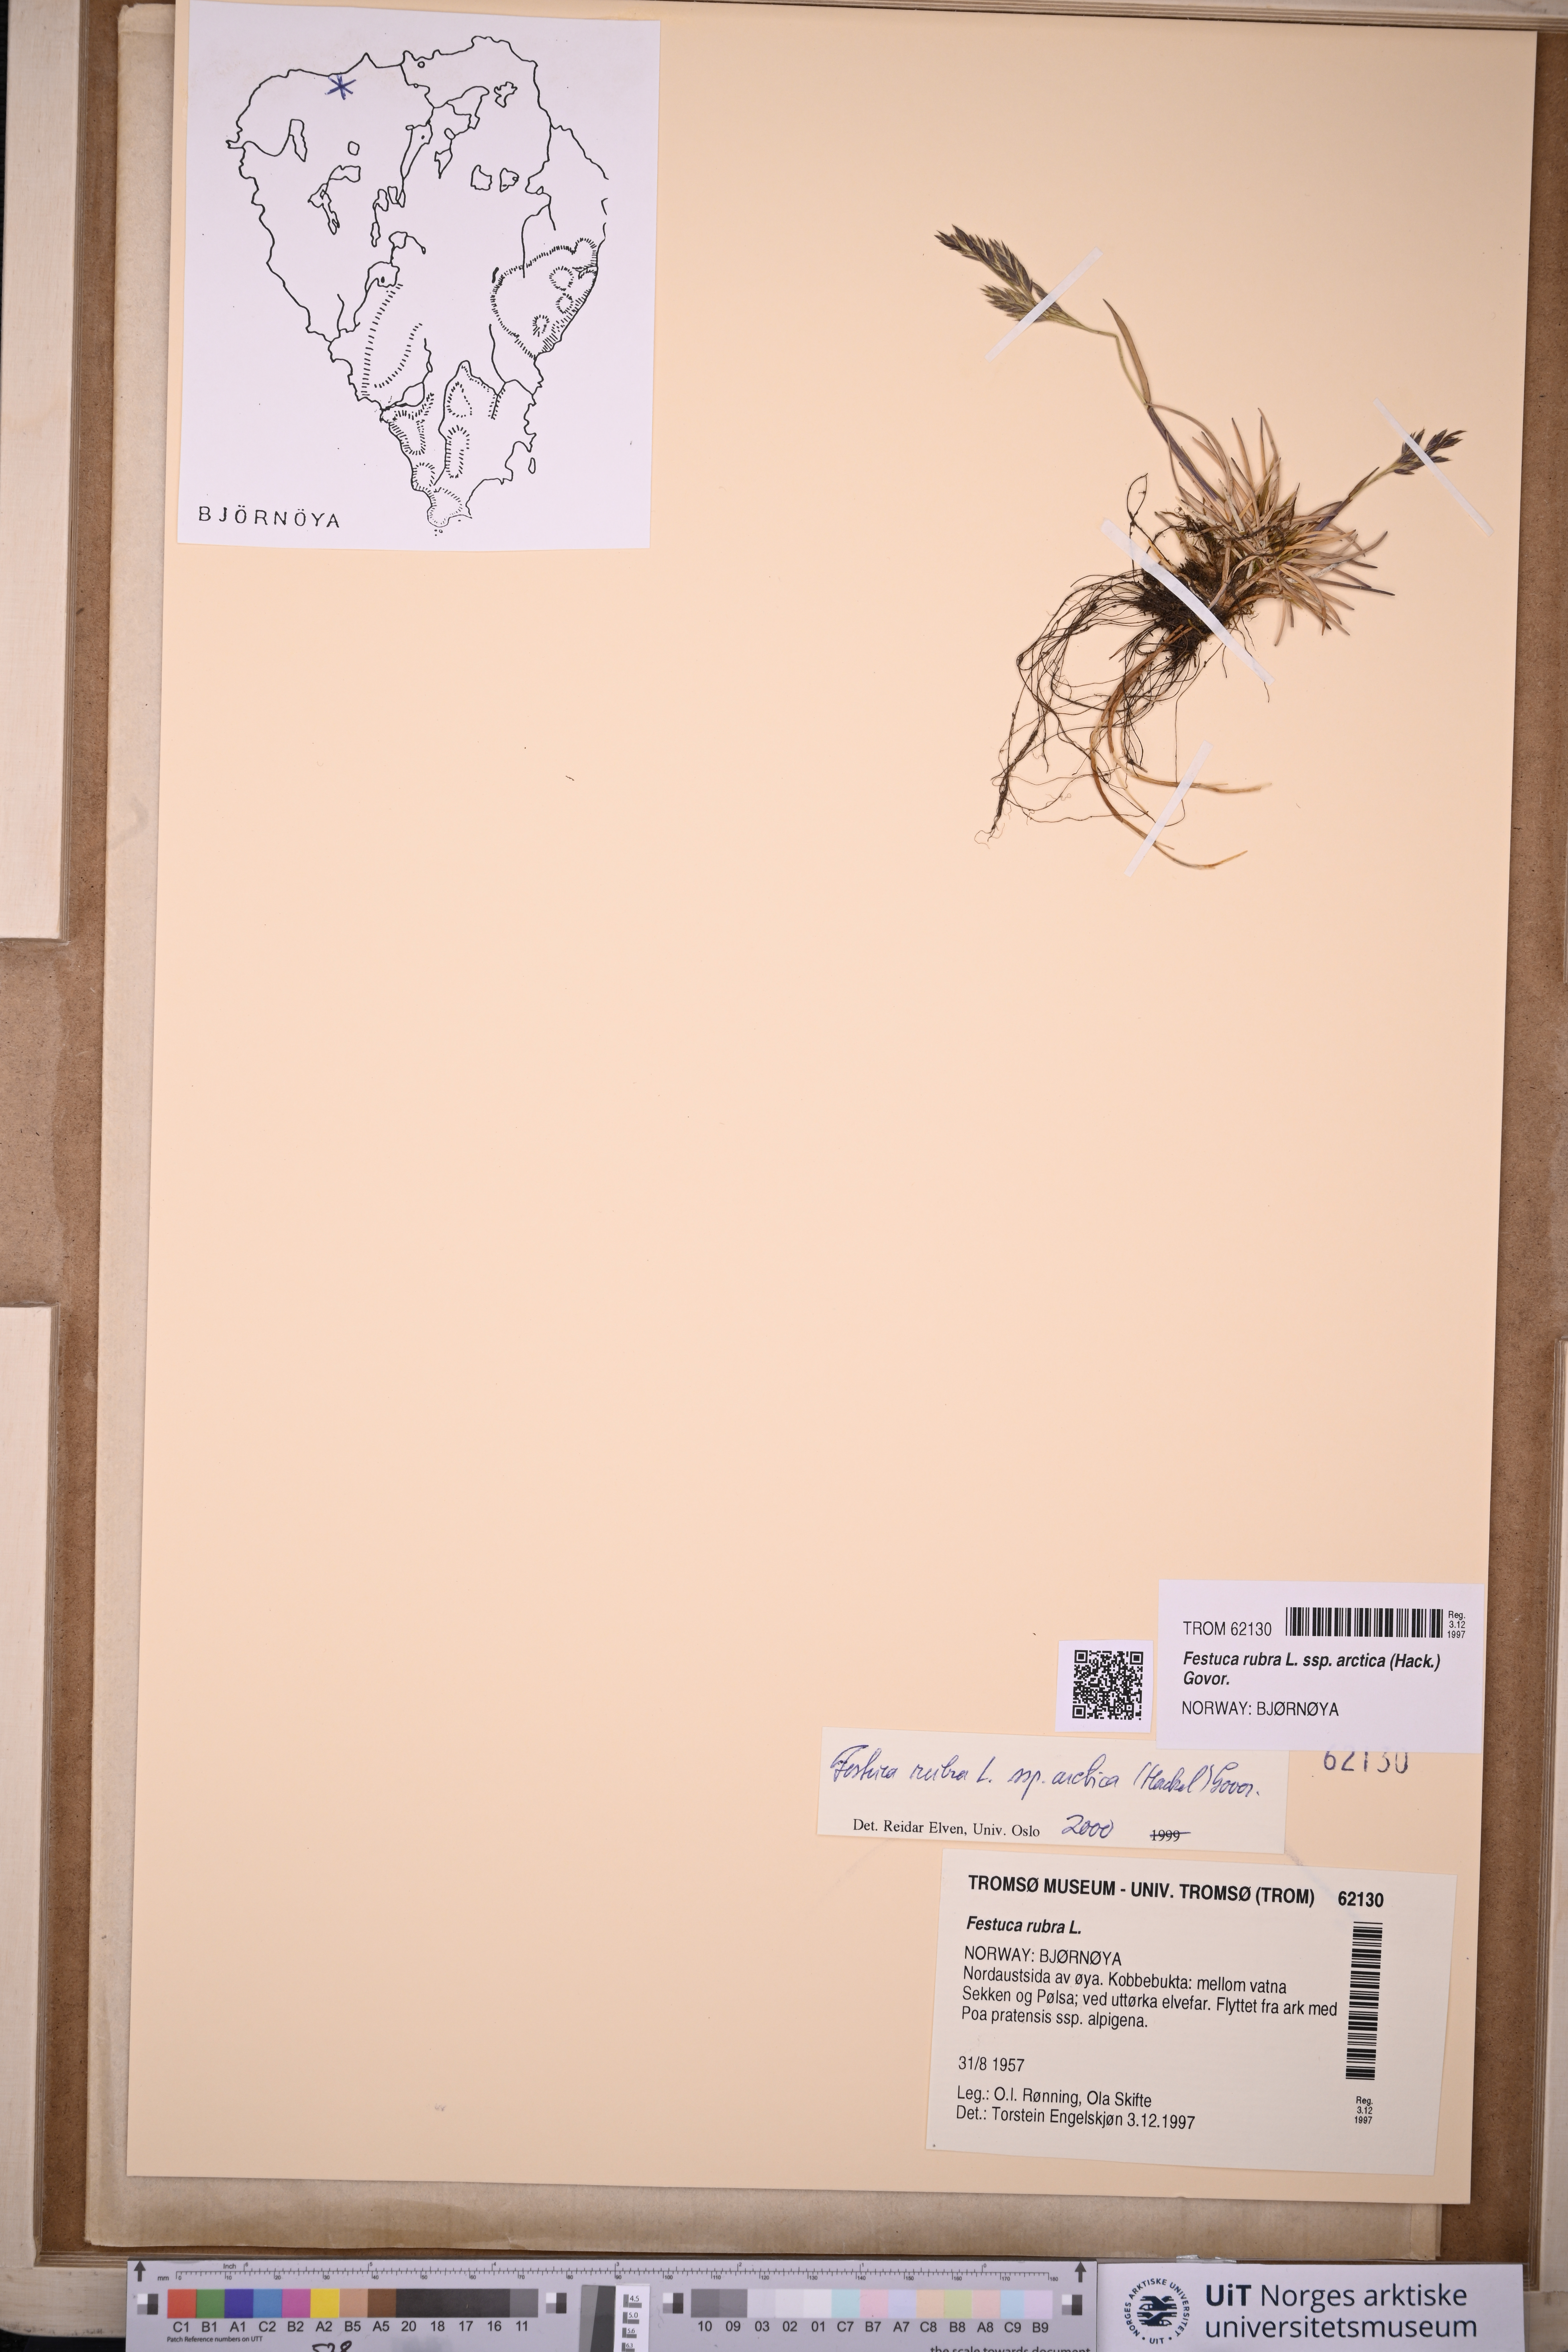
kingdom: Plantae
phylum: Tracheophyta
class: Liliopsida
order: Poales
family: Poaceae
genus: Festuca
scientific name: Festuca richardsonii
